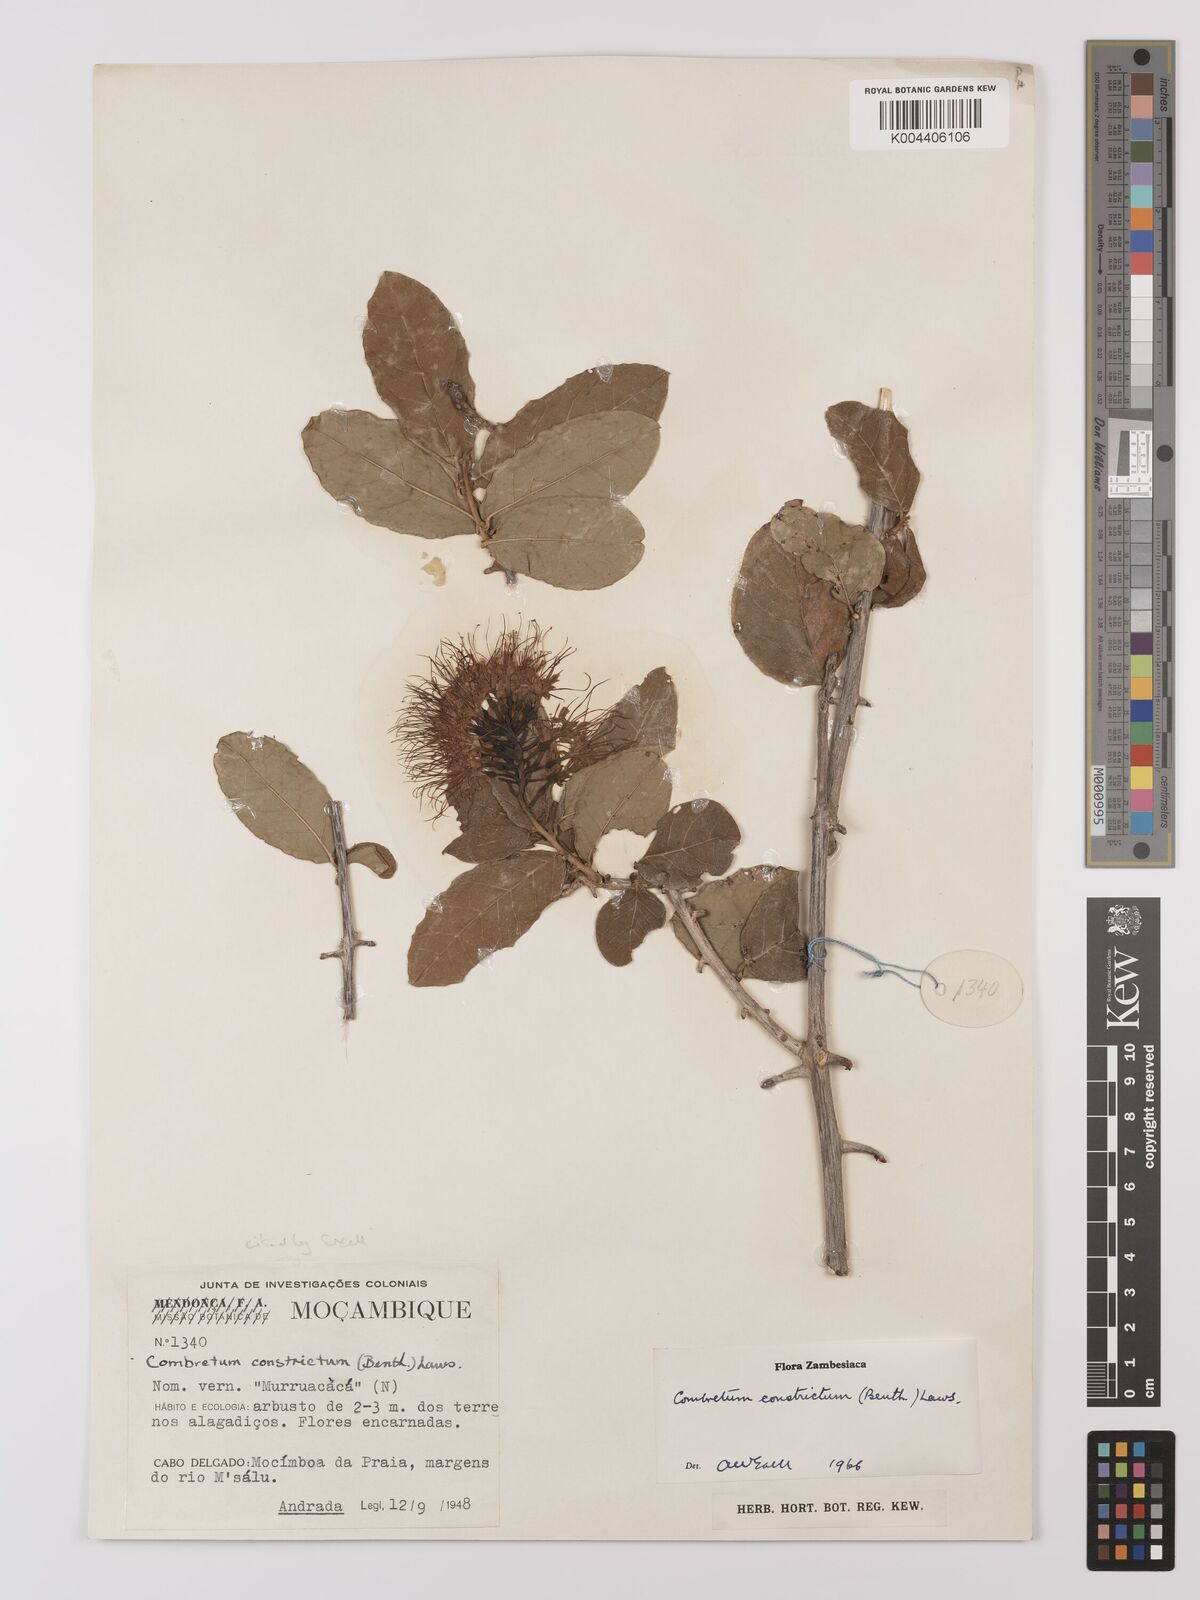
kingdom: Plantae
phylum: Tracheophyta
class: Magnoliopsida
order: Myrtales
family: Combretaceae
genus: Combretum
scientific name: Combretum constrictum
